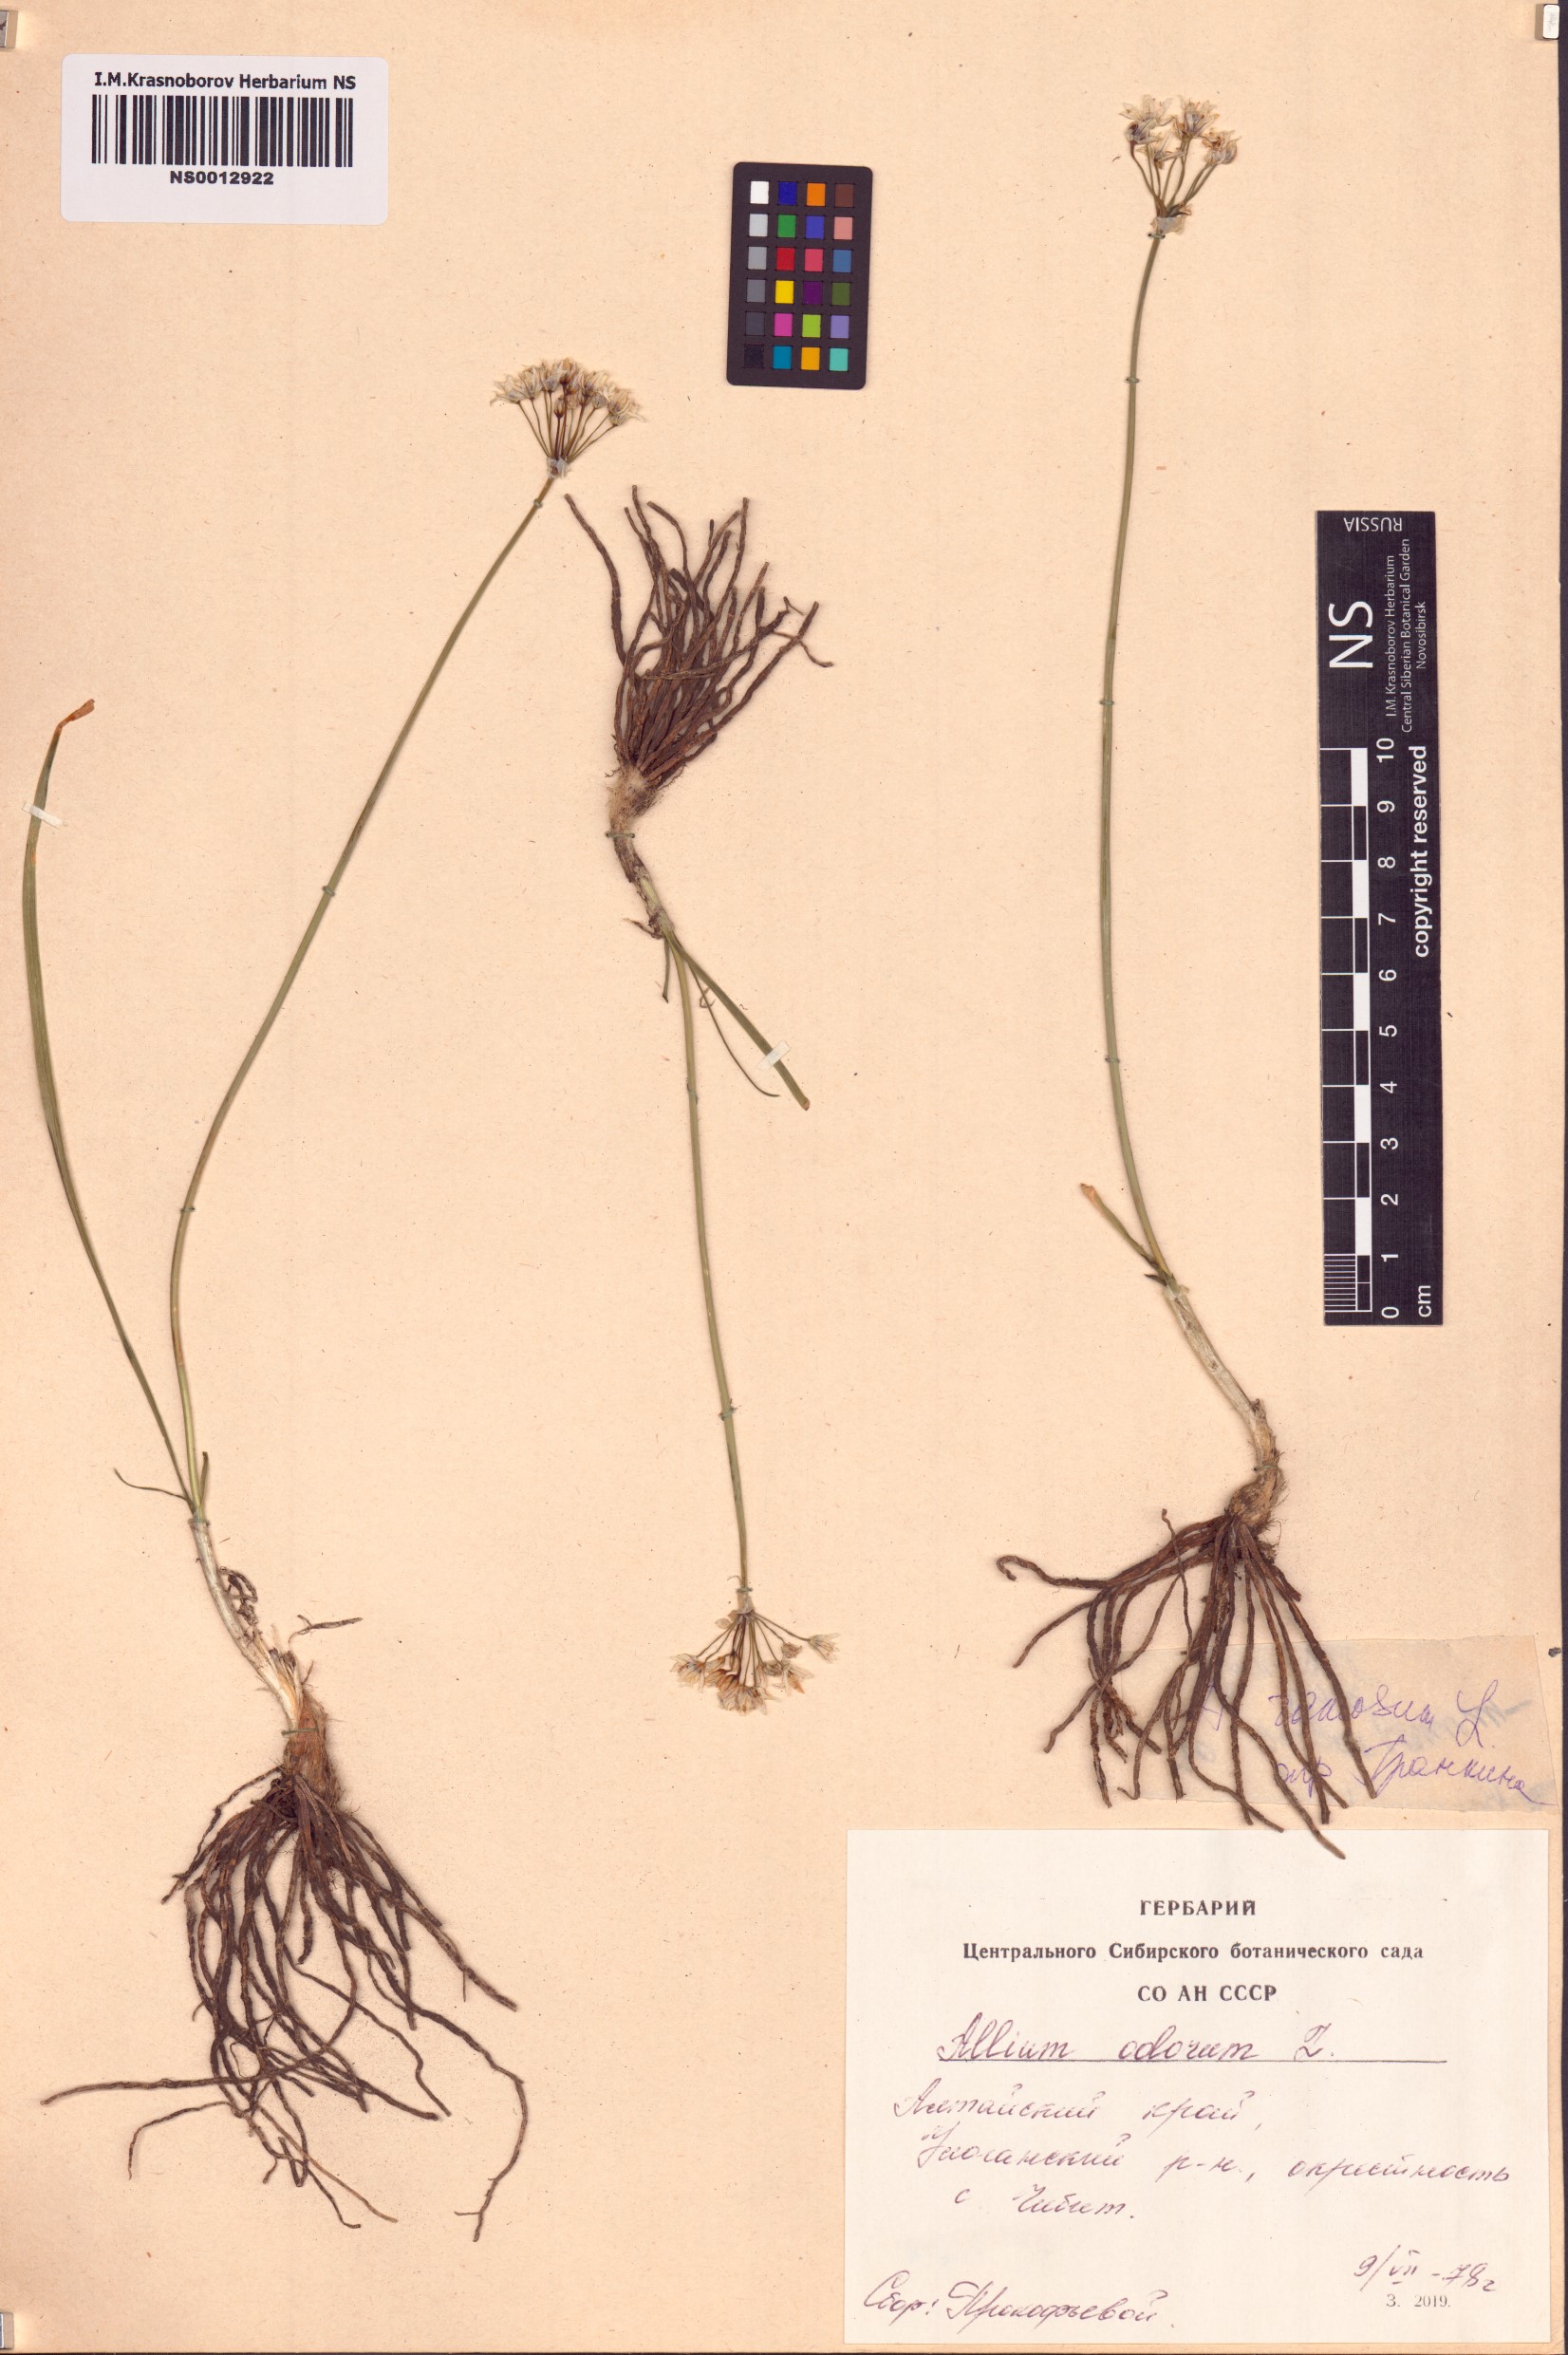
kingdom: Plantae
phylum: Tracheophyta
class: Liliopsida
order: Asparagales
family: Amaryllidaceae
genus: Allium
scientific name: Allium ramosum
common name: Fragrant garlic
